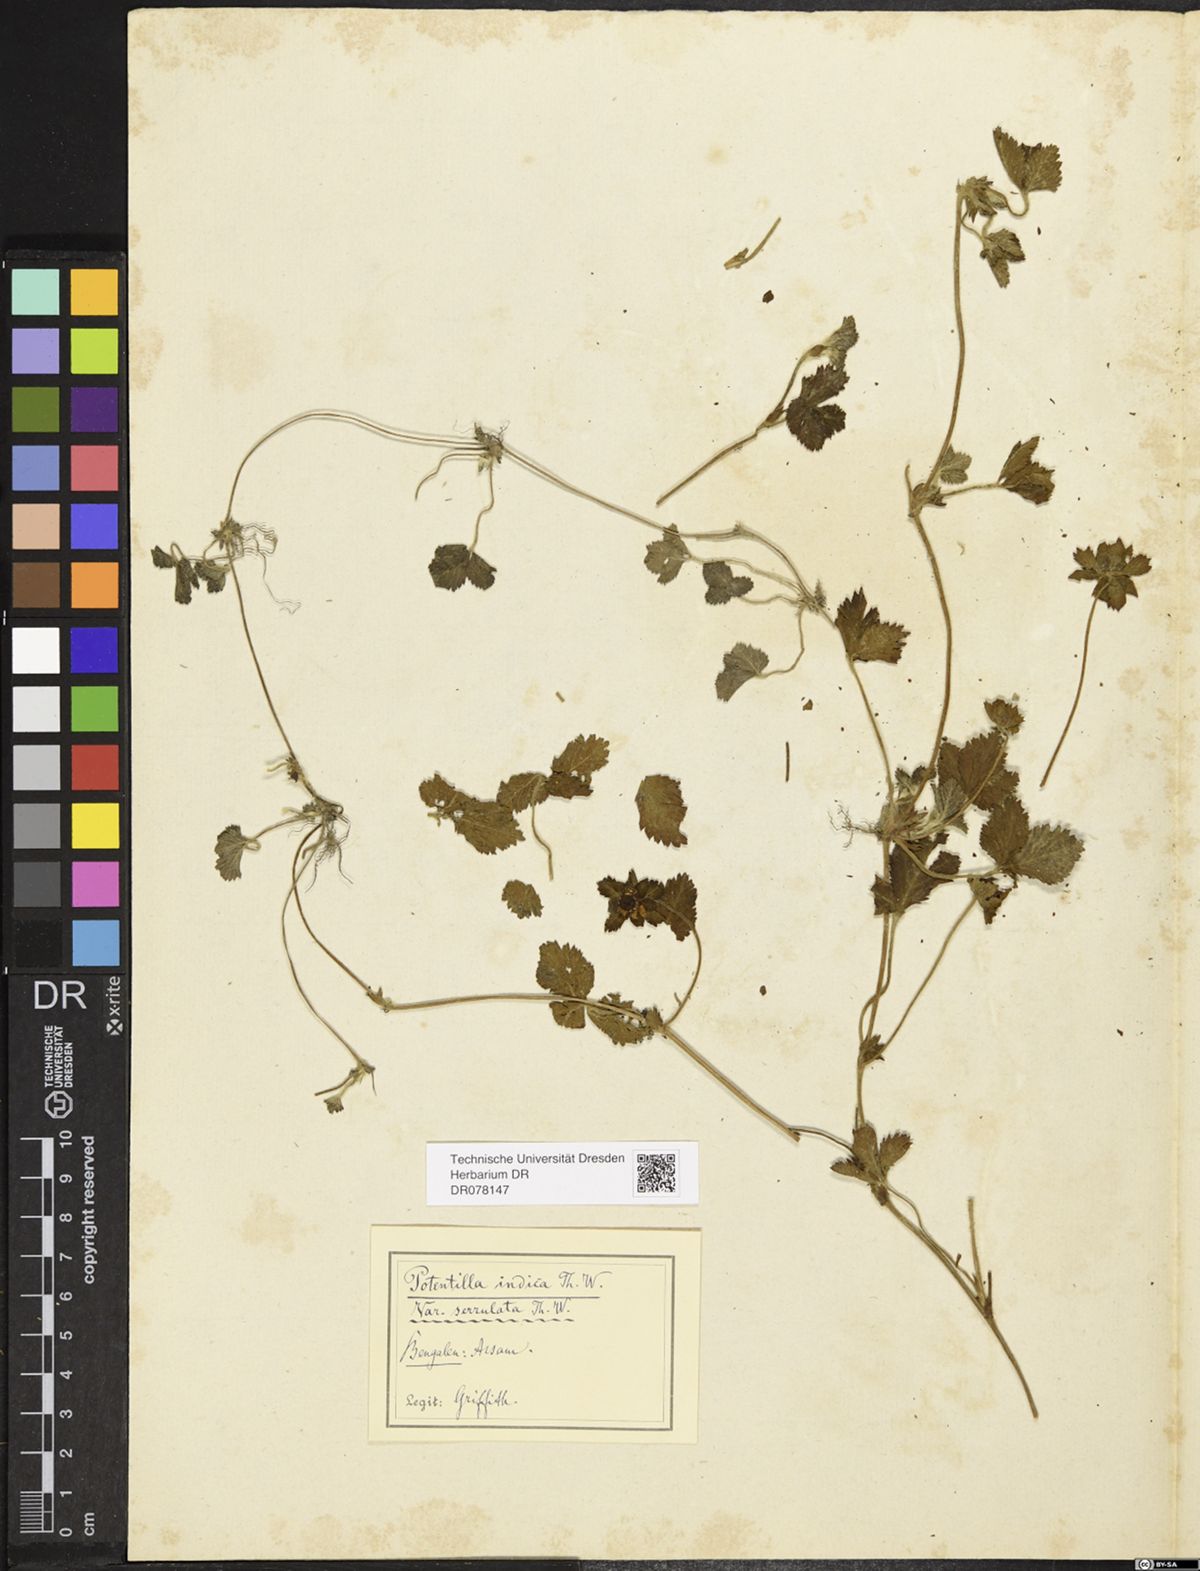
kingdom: Plantae
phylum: Tracheophyta
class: Magnoliopsida
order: Rosales
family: Rosaceae
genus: Potentilla
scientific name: Potentilla indica
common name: Yellow-flowered strawberry
